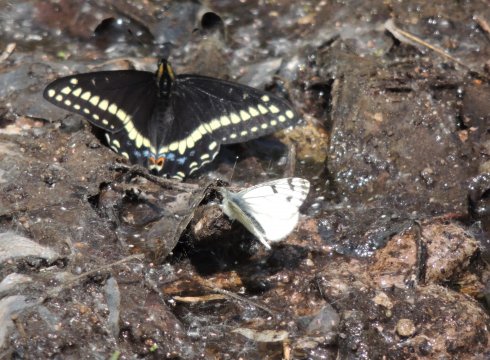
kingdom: Animalia
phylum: Arthropoda
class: Insecta
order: Lepidoptera
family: Pieridae
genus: Pontia
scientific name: Pontia sisymbrii
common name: Spring White
